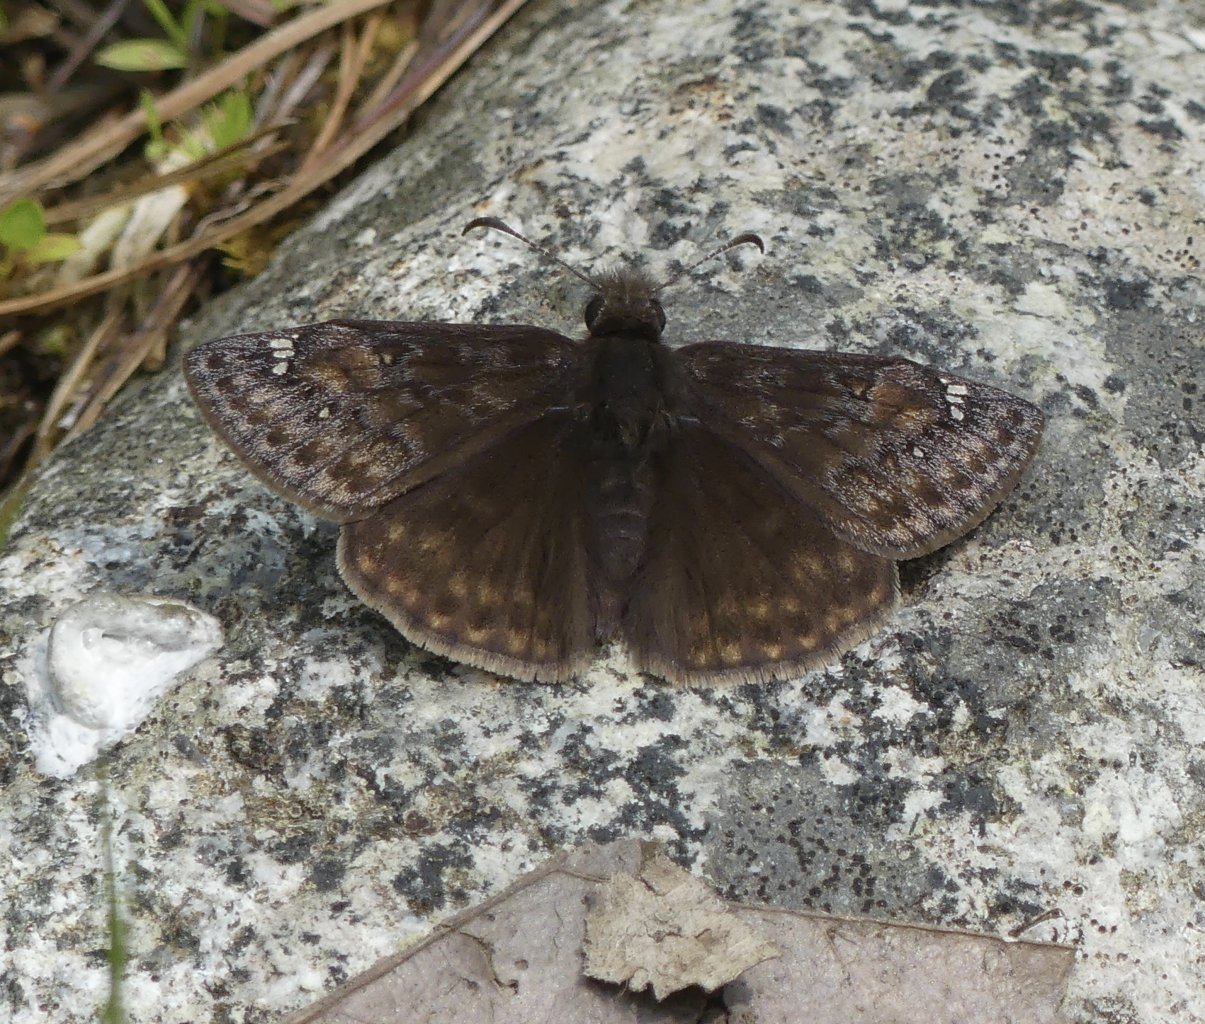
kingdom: Animalia
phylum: Arthropoda
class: Insecta
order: Lepidoptera
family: Hesperiidae
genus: Gesta
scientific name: Gesta
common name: Juvenal's Duskywing
